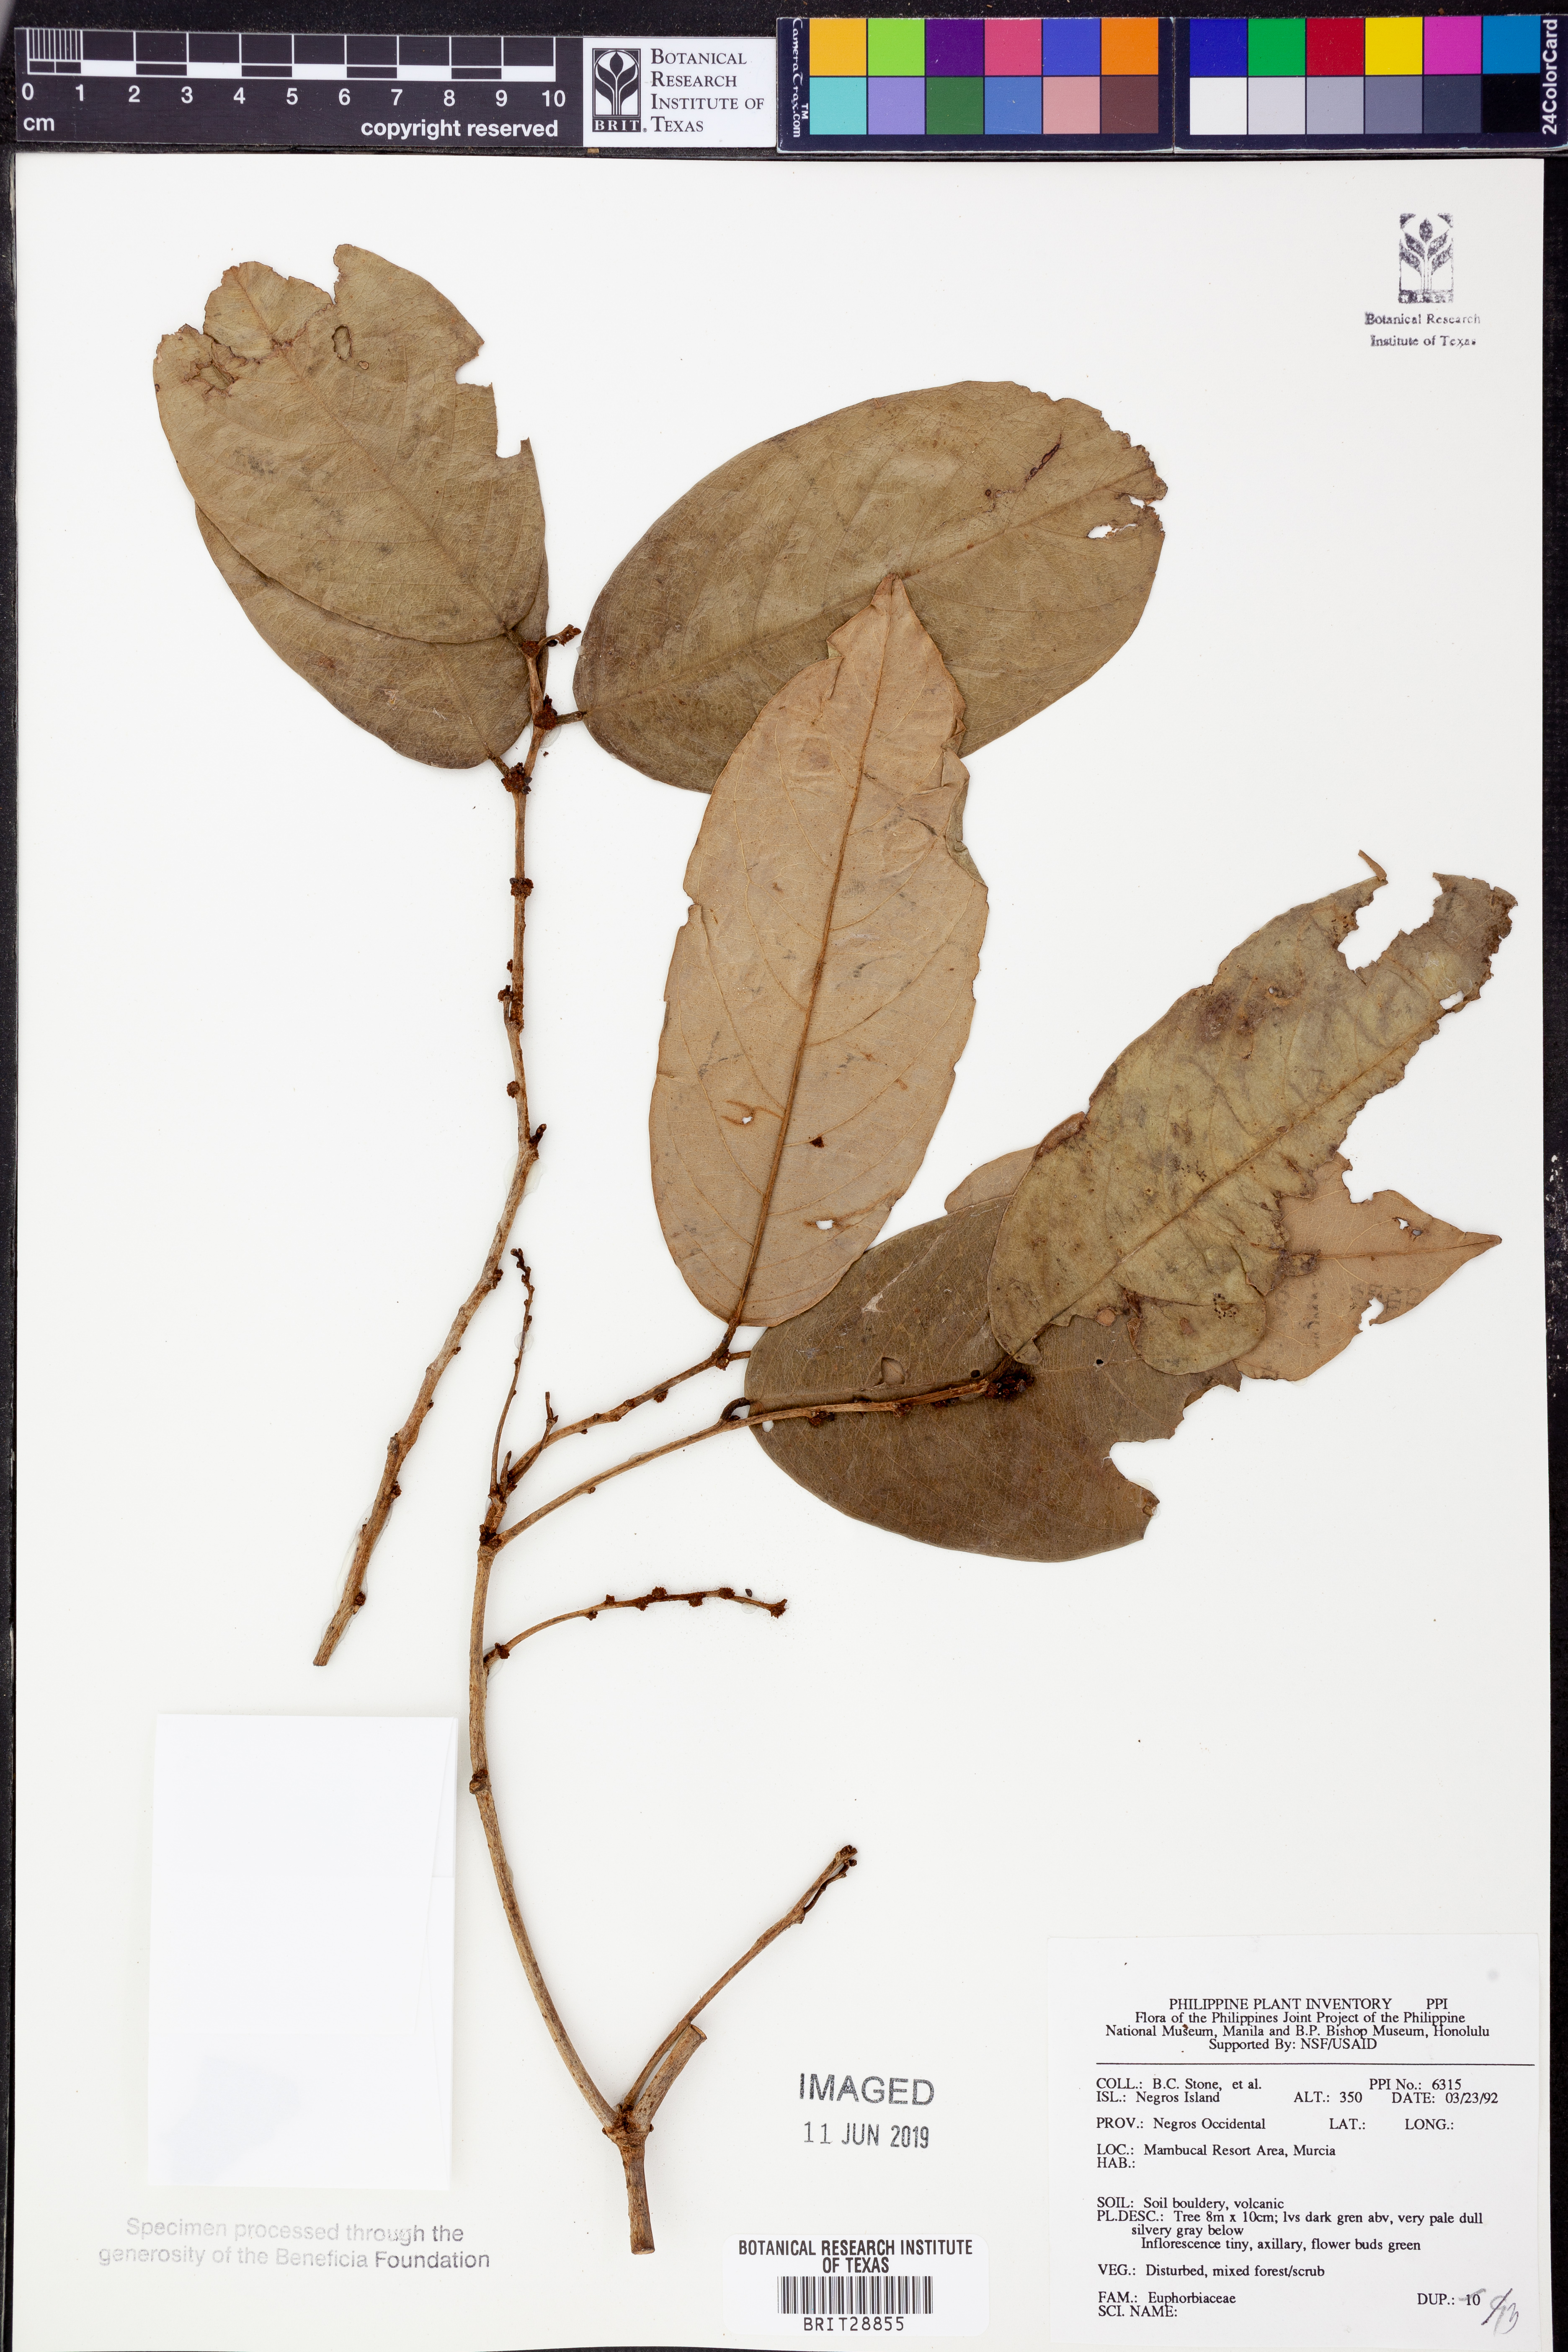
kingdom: Plantae
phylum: Tracheophyta
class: Magnoliopsida
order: Malpighiales
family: Euphorbiaceae
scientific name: Euphorbiaceae
